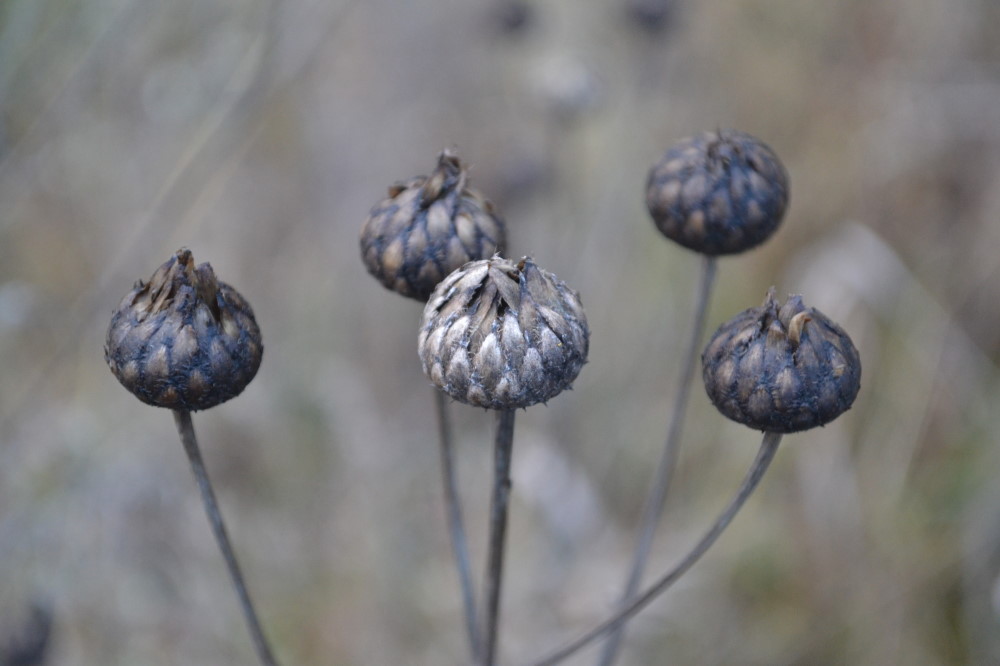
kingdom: Plantae
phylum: Tracheophyta
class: Magnoliopsida
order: Asterales
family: Asteraceae
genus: Centaurea
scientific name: Centaurea jacea
